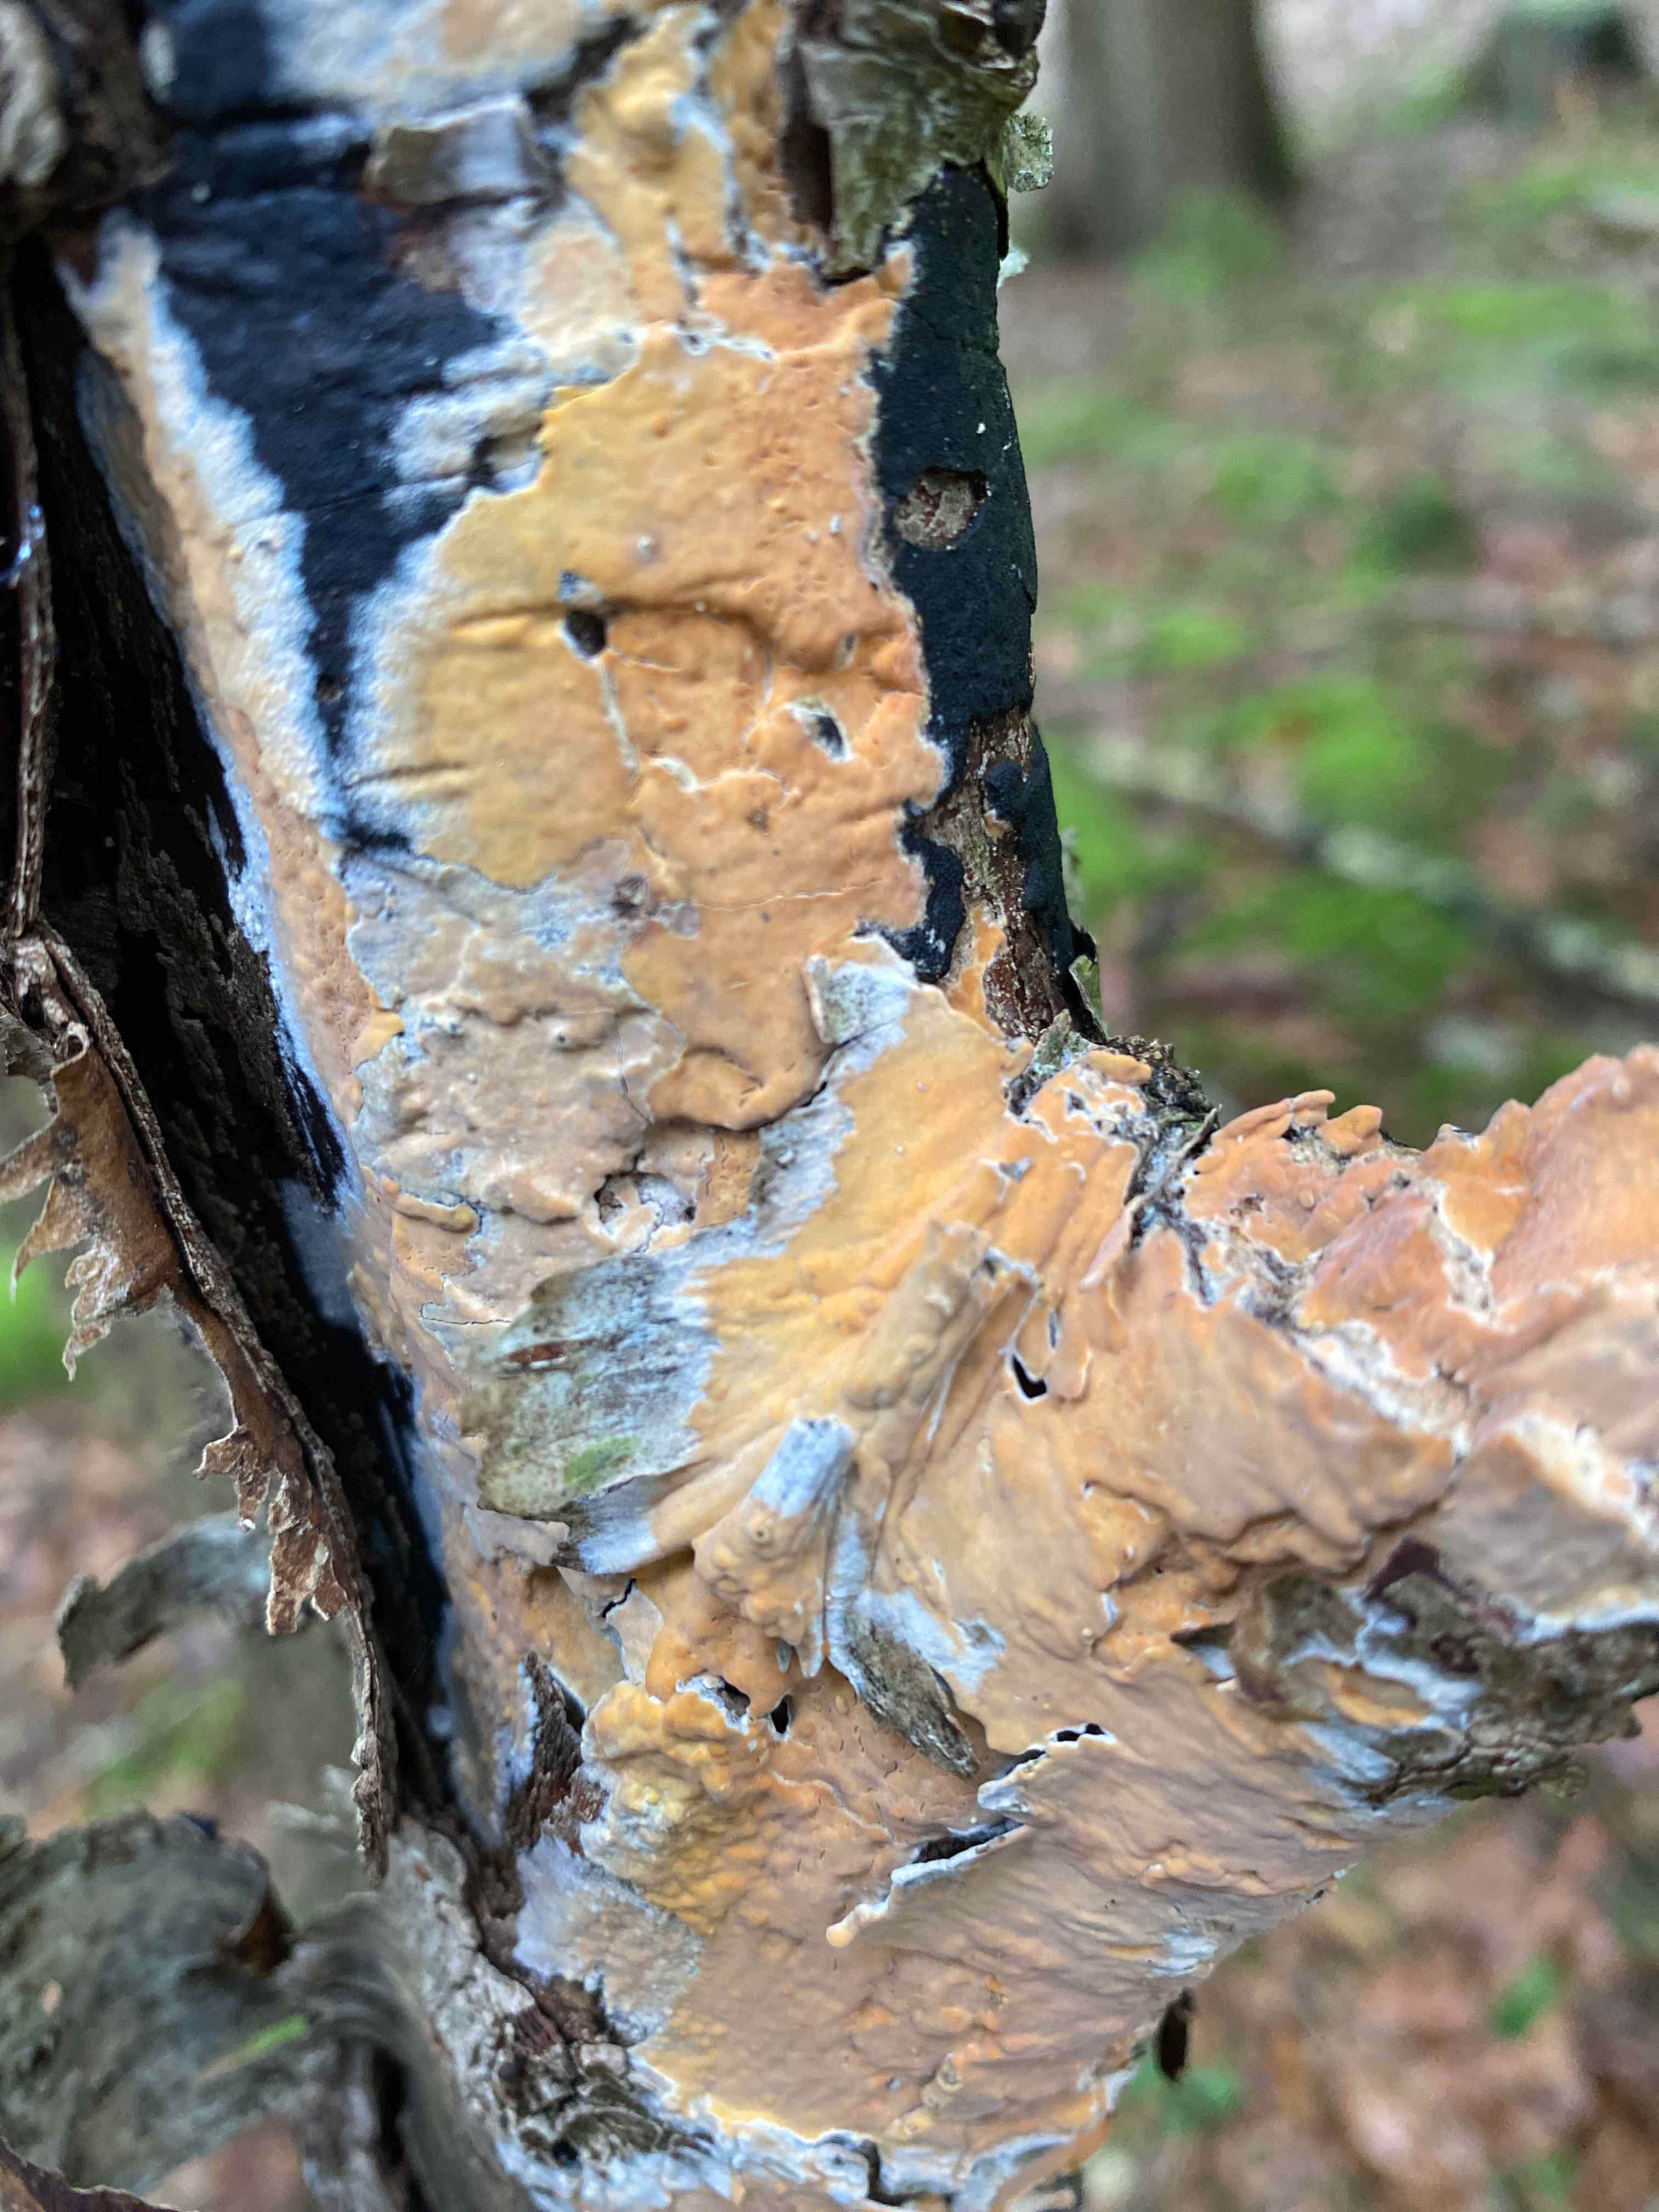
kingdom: Fungi
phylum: Basidiomycota
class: Agaricomycetes
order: Russulales
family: Peniophoraceae
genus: Peniophora
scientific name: Peniophora incarnata
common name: laksefarvet voksskind
